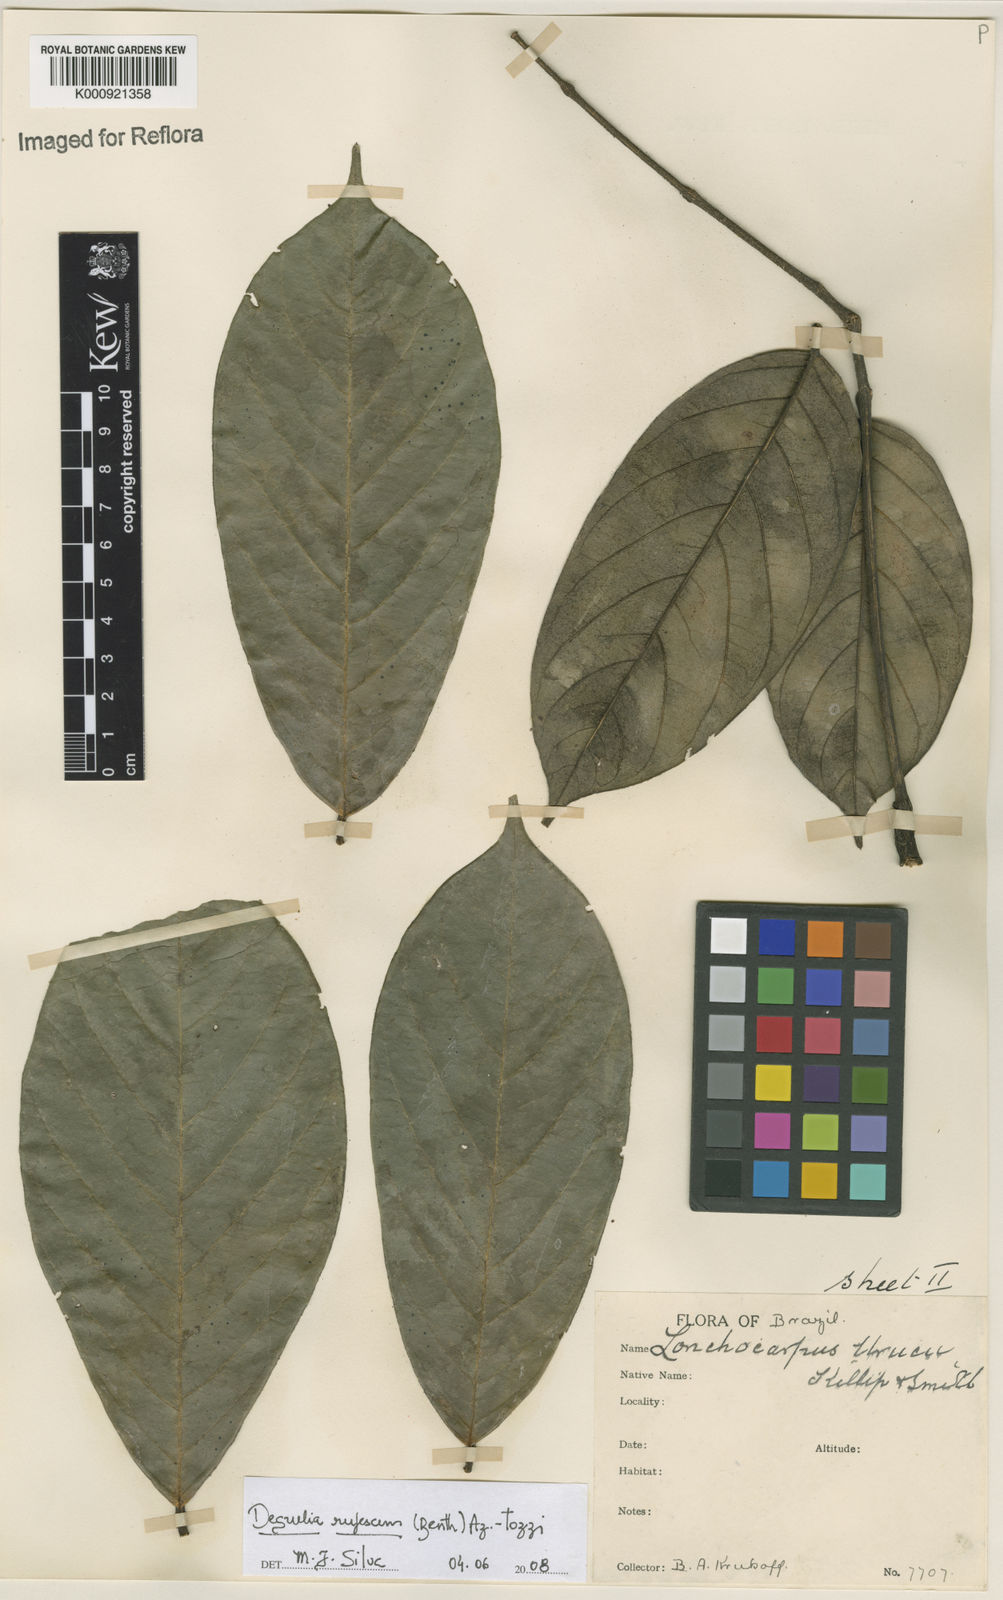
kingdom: Plantae
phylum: Tracheophyta
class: Magnoliopsida
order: Fabales
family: Fabaceae
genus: Deguelia
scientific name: Deguelia
